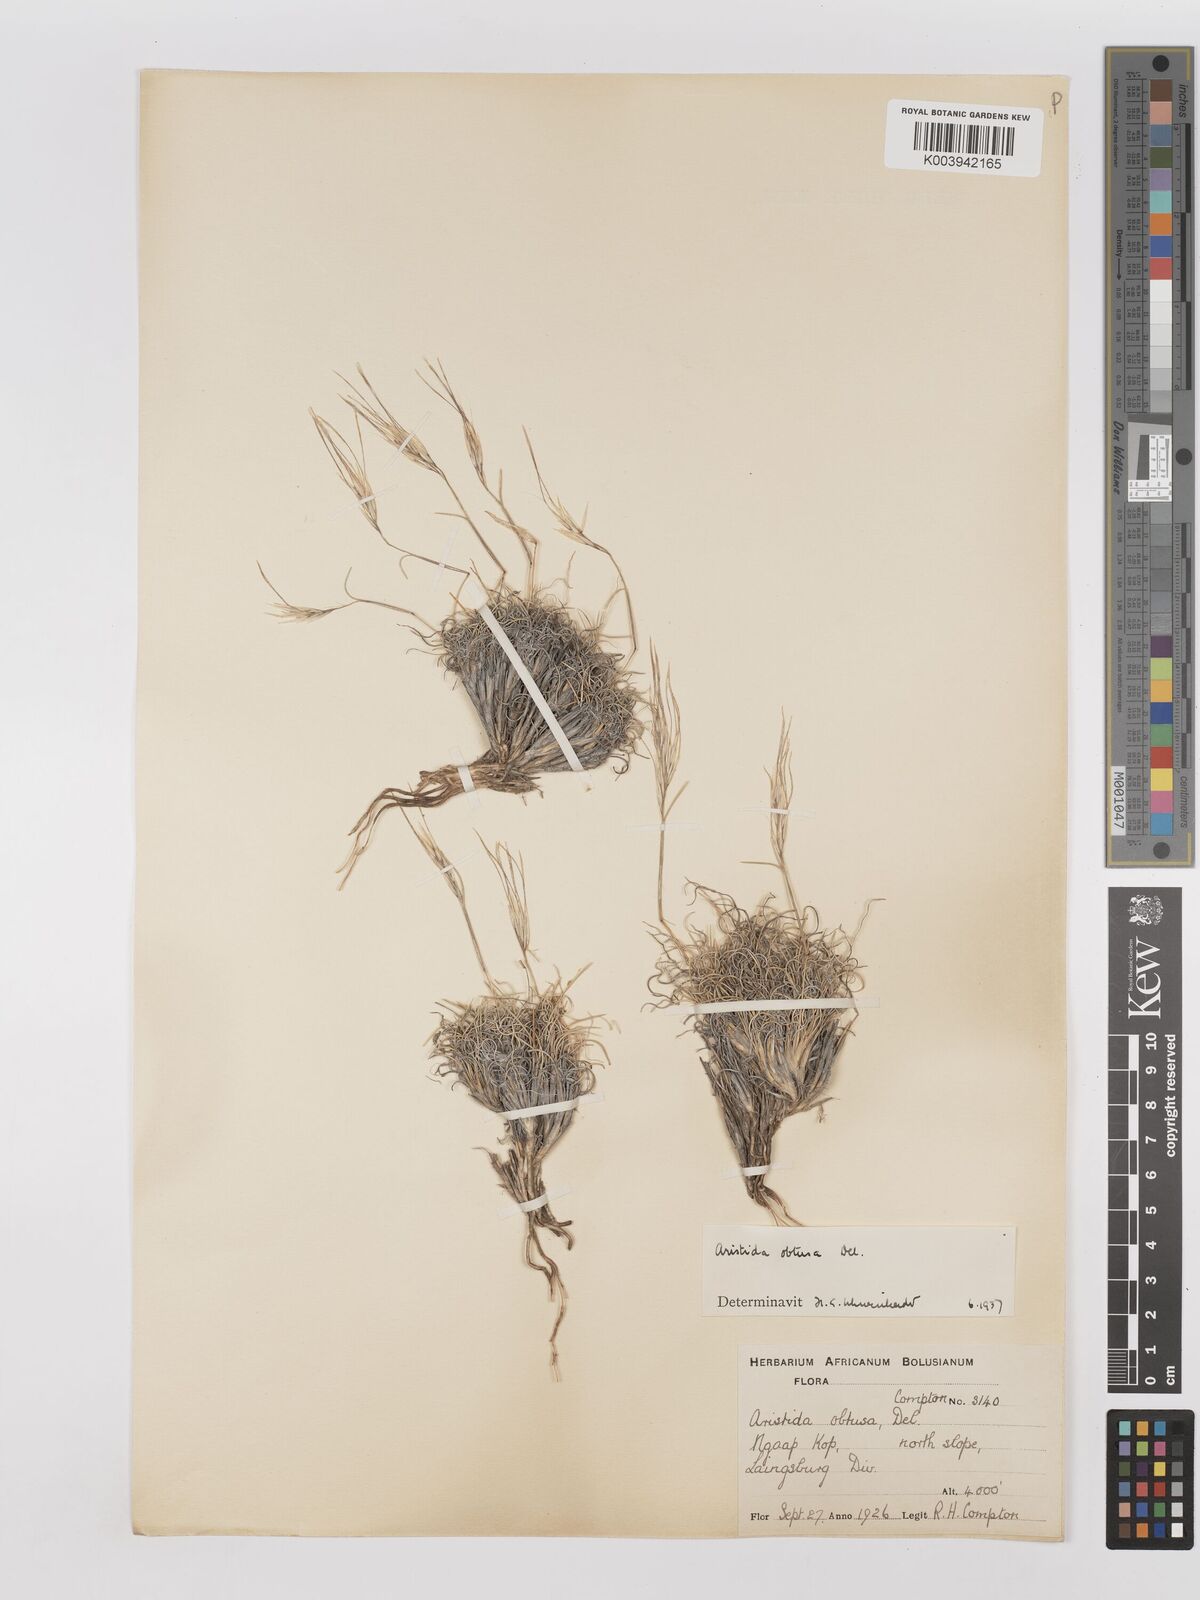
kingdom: Plantae
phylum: Tracheophyta
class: Liliopsida
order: Poales
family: Poaceae
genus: Stipagrostis
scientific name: Stipagrostis obtusa
